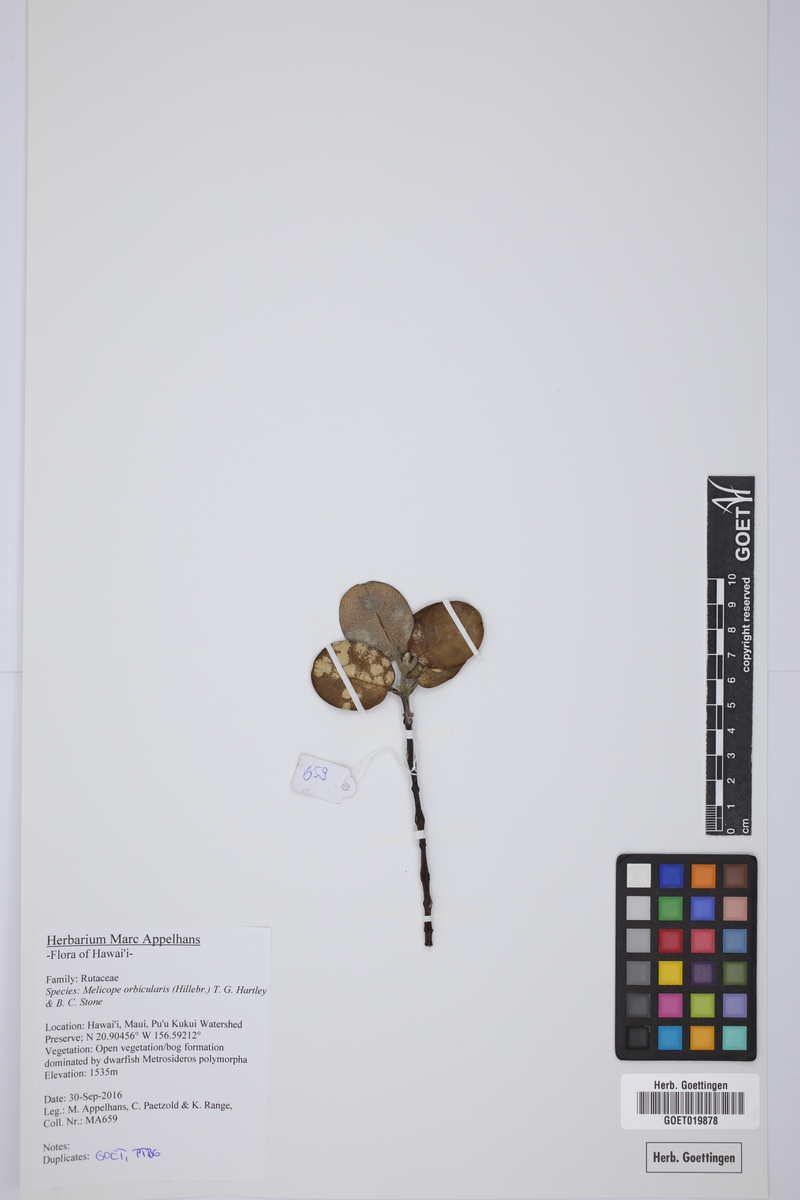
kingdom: Plantae
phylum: Tracheophyta
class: Magnoliopsida
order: Sapindales
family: Rutaceae
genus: Melicope
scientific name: Melicope orbicularis
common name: Orbicular pelea
